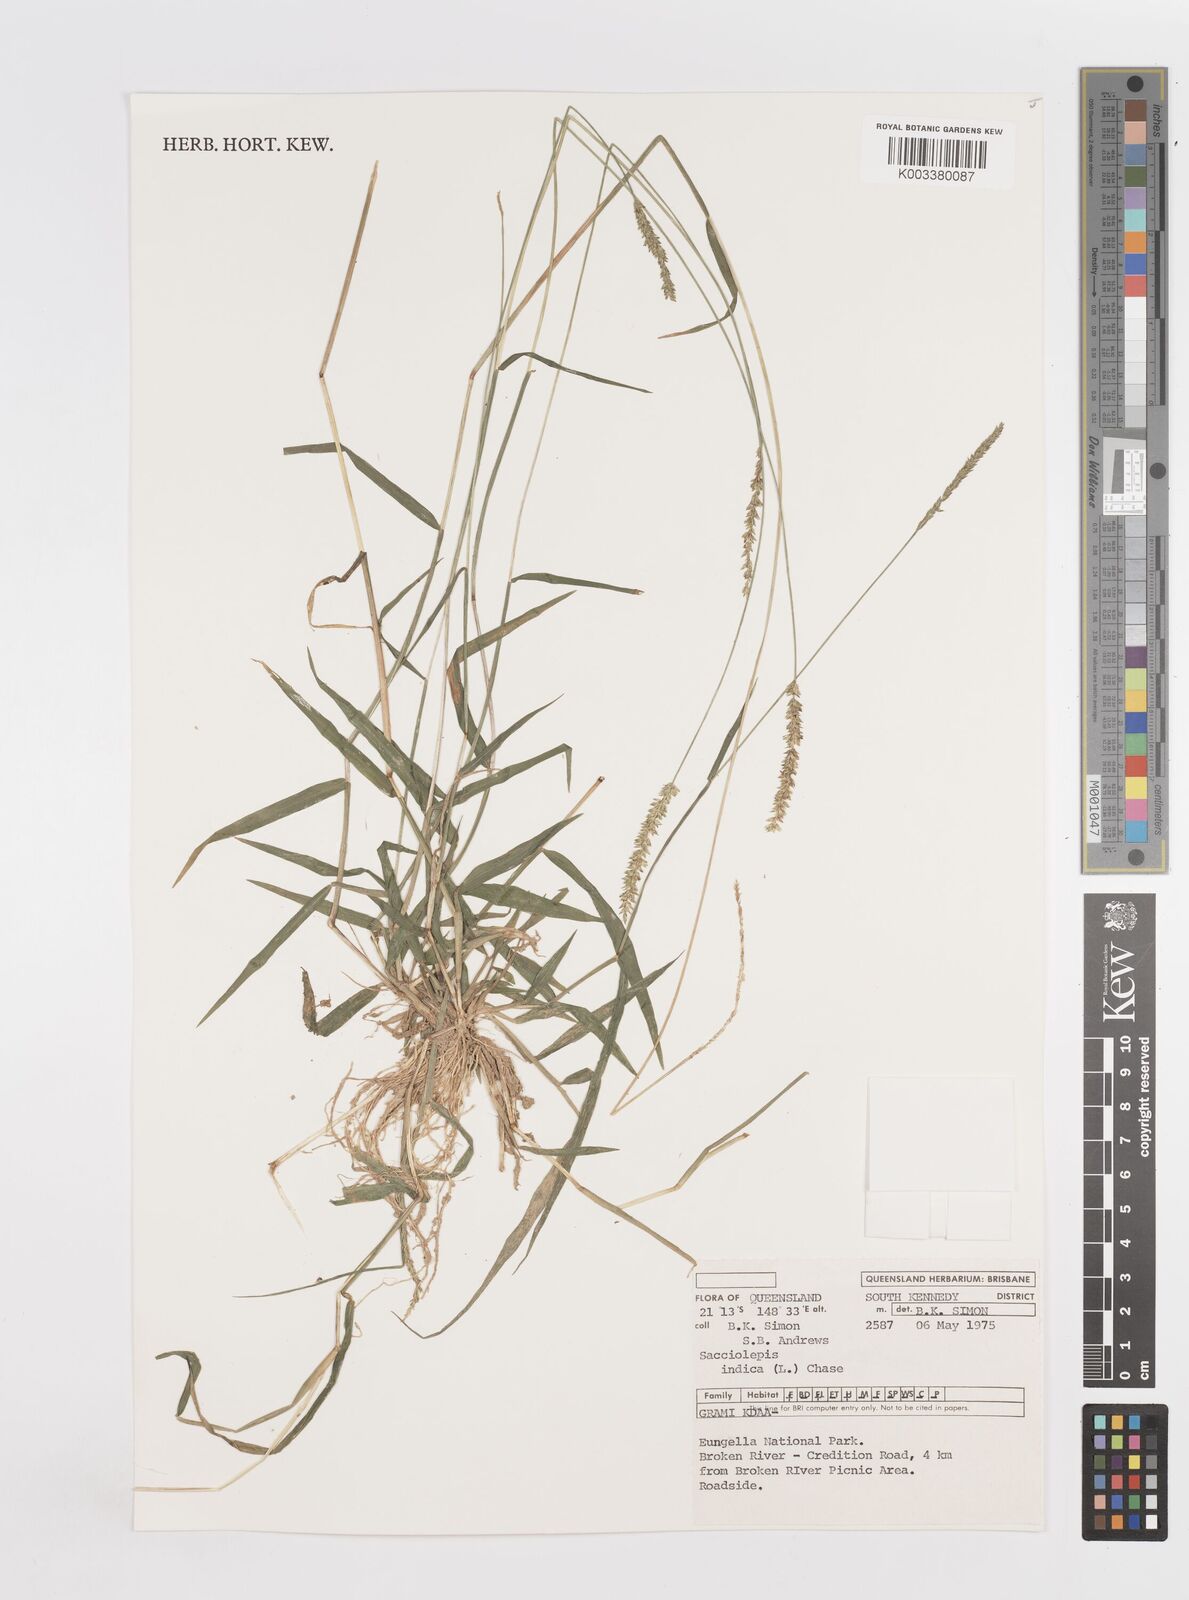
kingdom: Plantae
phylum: Tracheophyta
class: Liliopsida
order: Poales
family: Poaceae
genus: Sacciolepis
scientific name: Sacciolepis indica
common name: Glenwoodgrass
